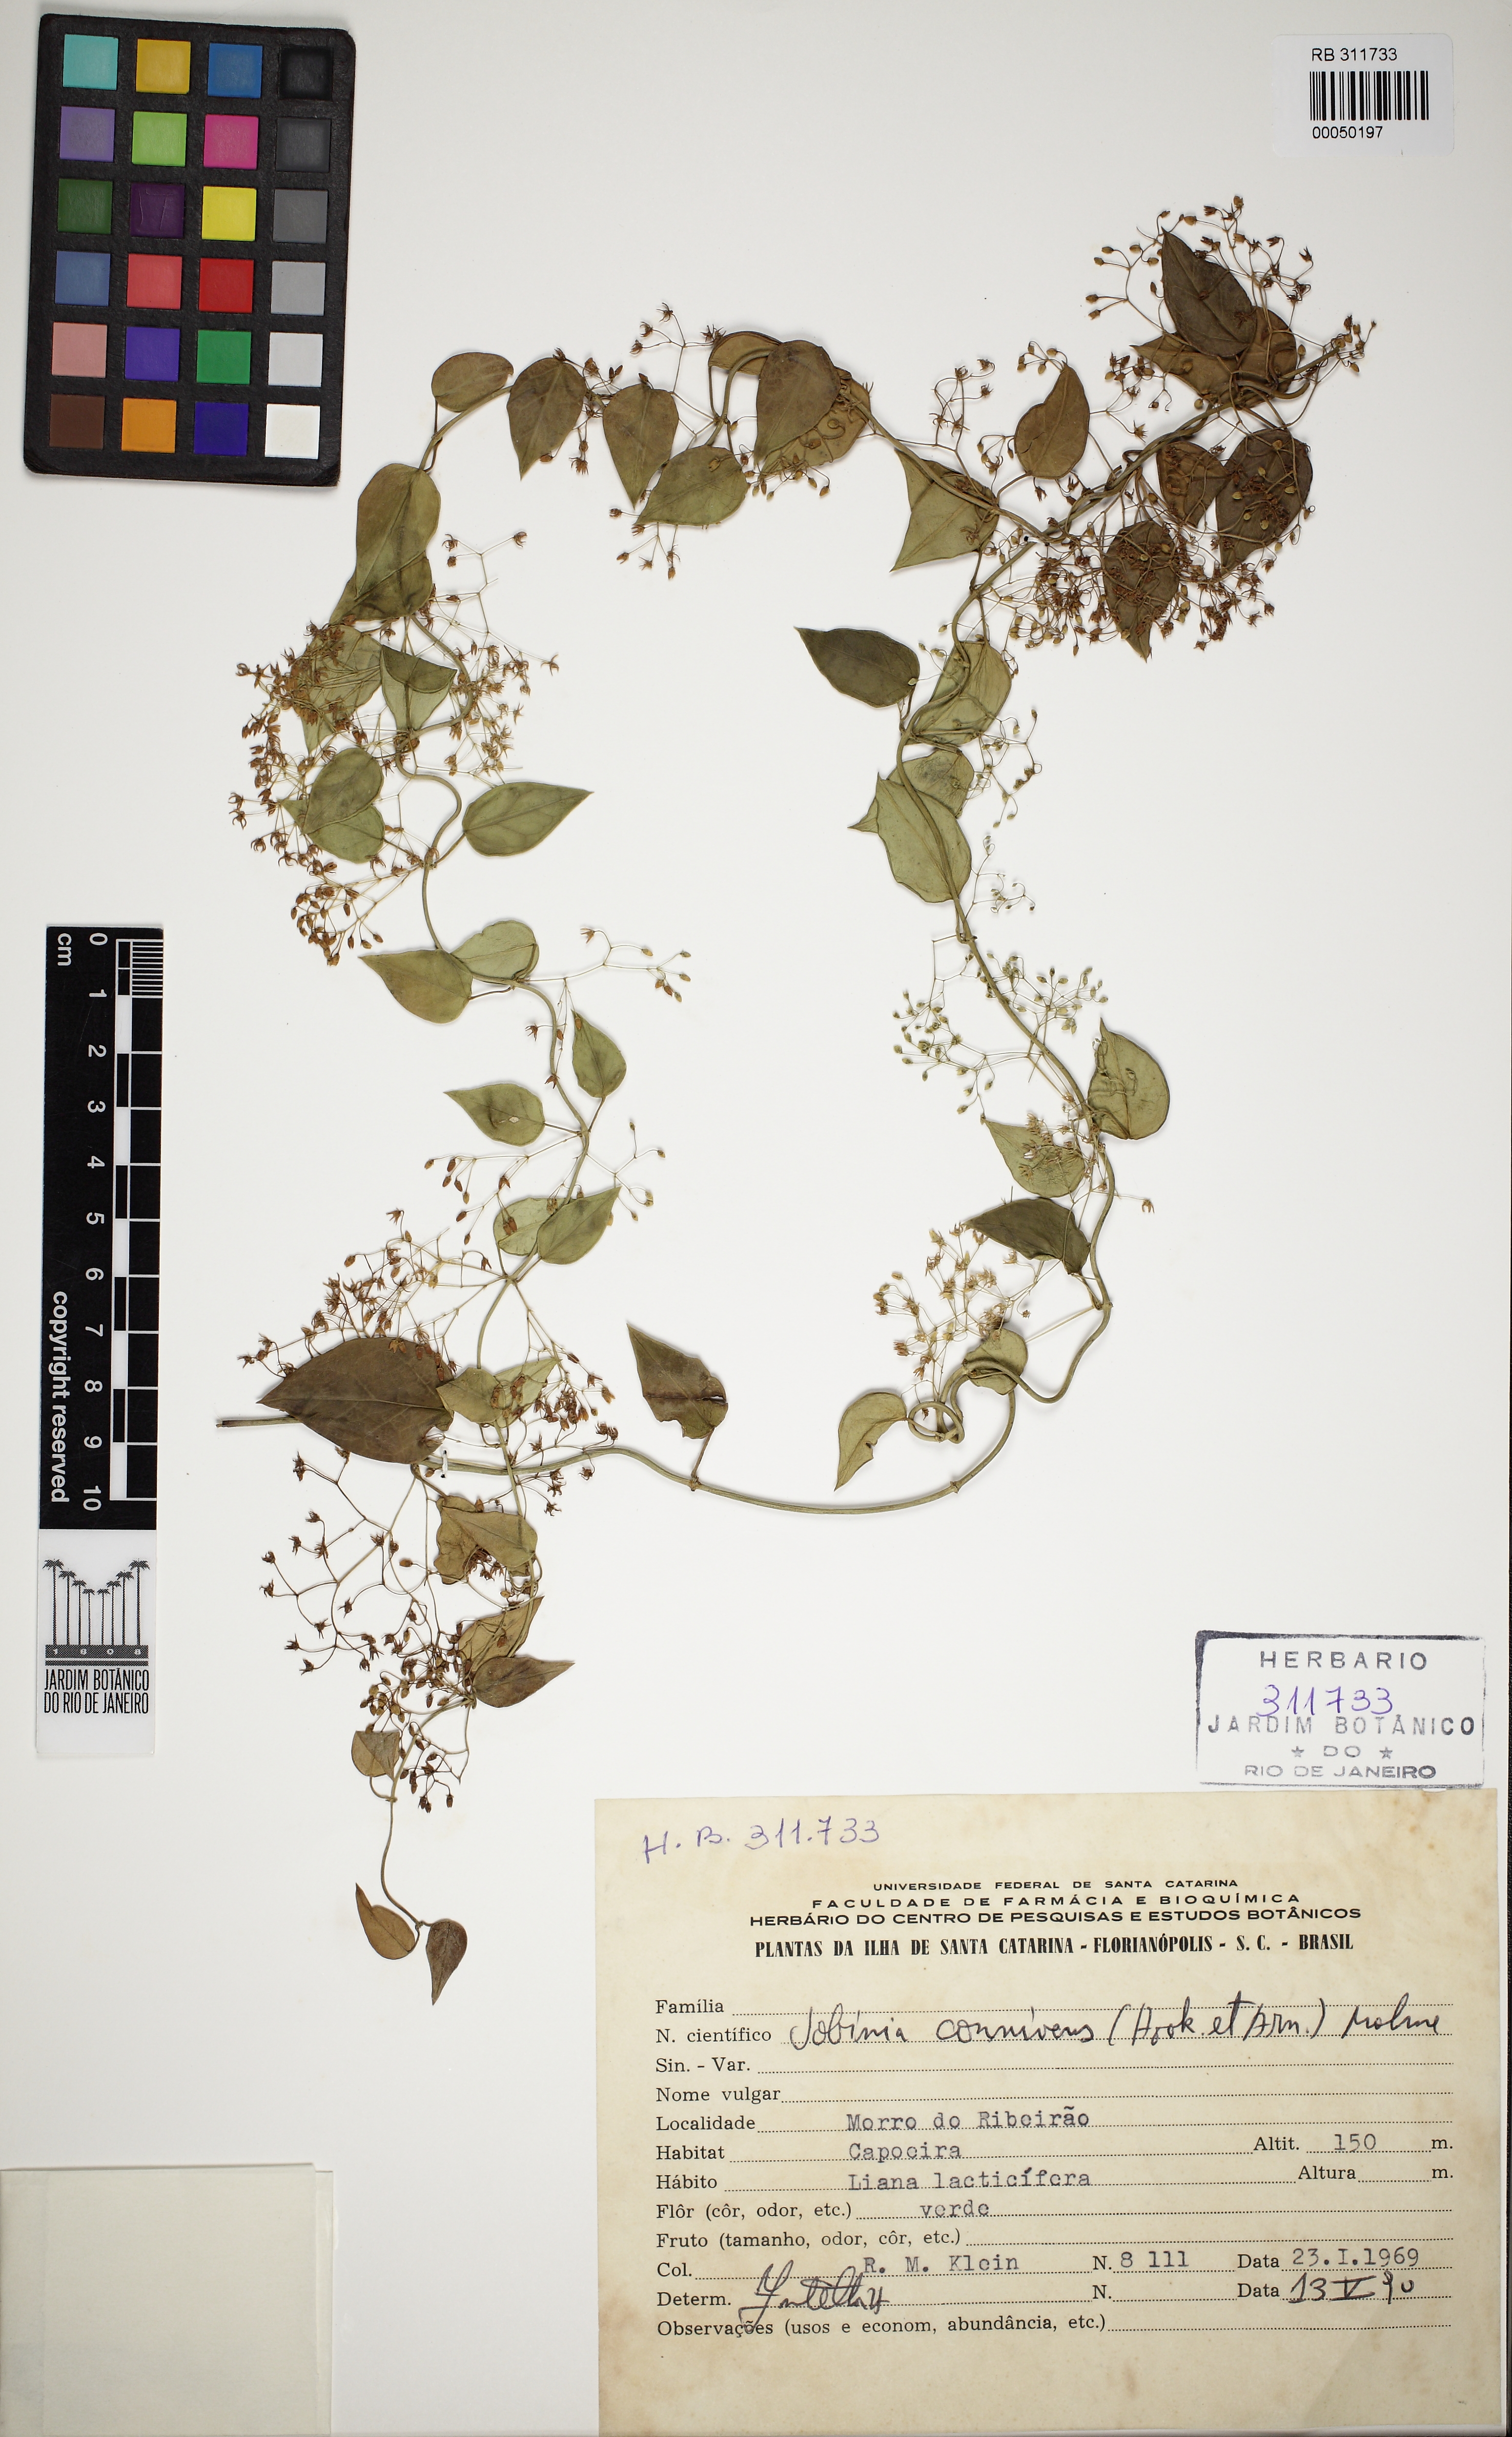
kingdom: Plantae
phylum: Tracheophyta
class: Magnoliopsida
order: Gentianales
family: Apocynaceae
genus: Jobinia
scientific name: Jobinia connivens
